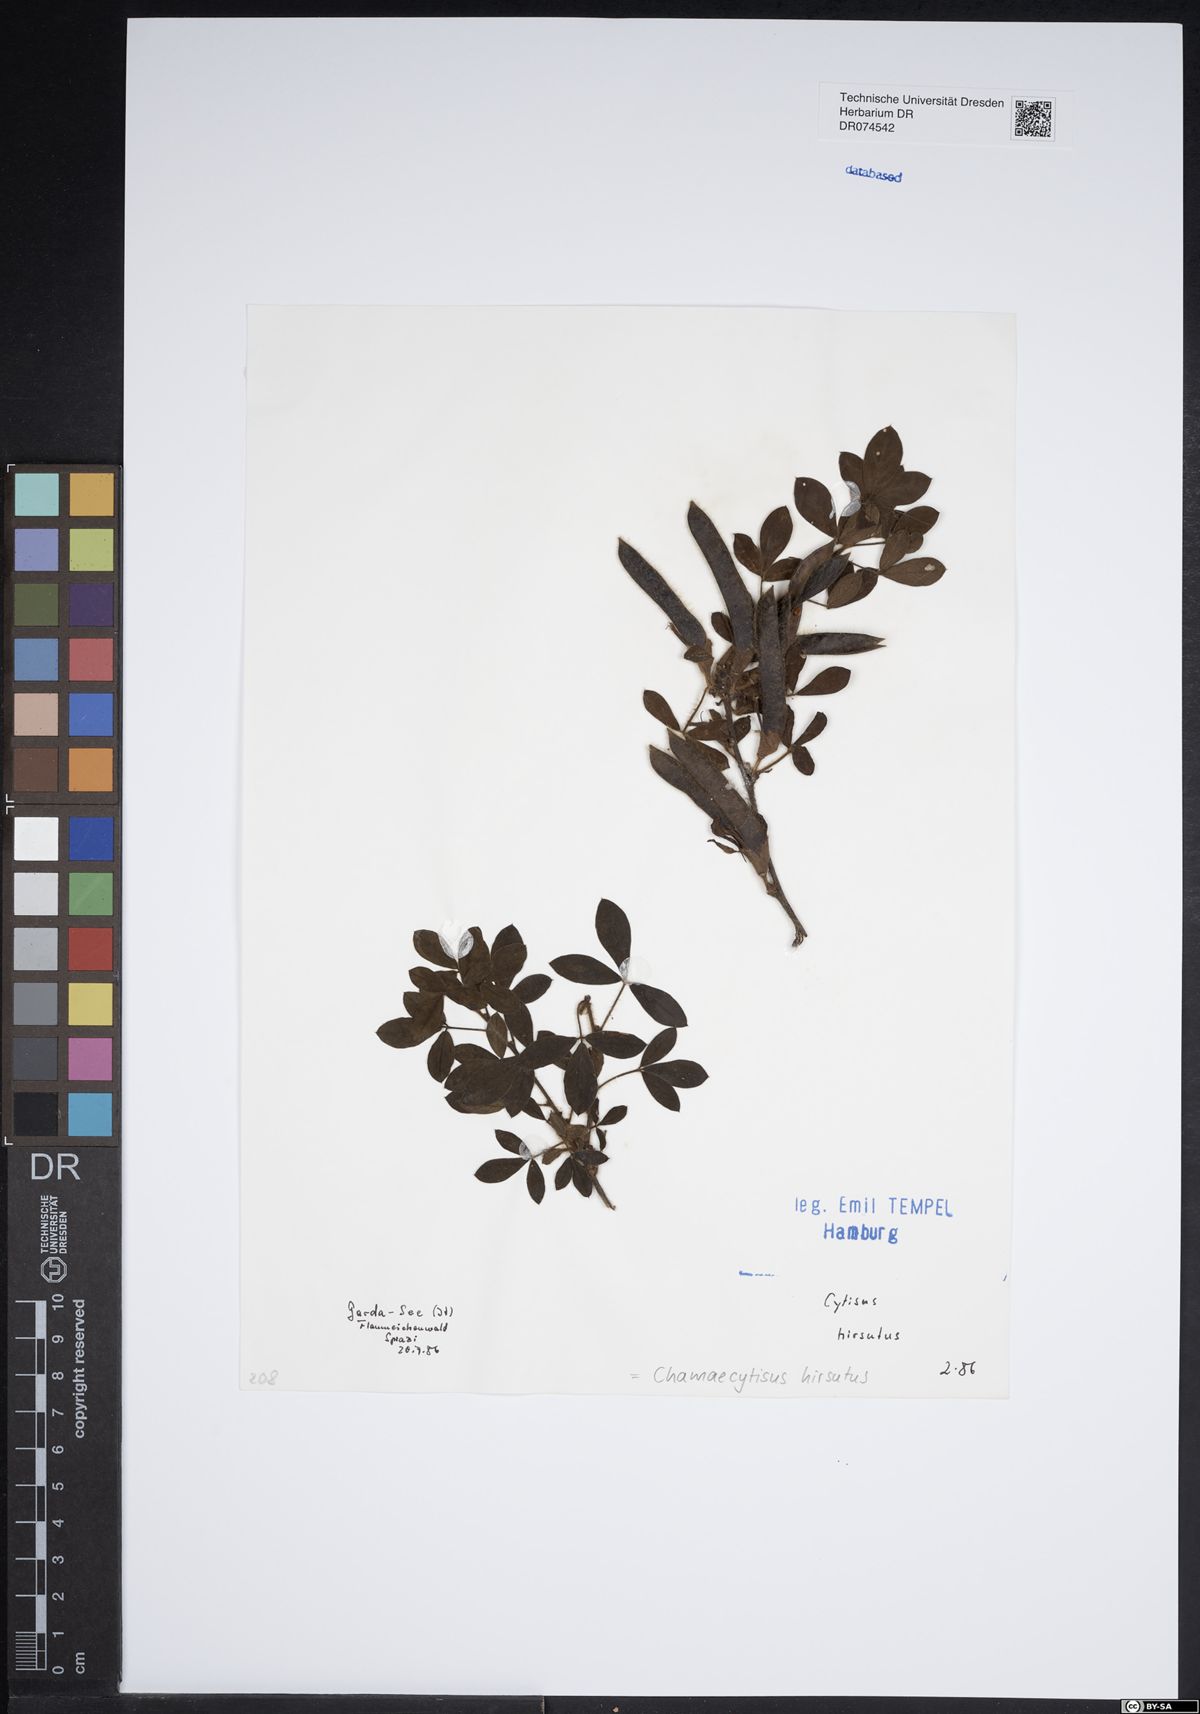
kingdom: Plantae
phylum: Tracheophyta
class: Magnoliopsida
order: Fabales
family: Fabaceae
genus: Chamaecytisus
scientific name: Chamaecytisus hirsutus
